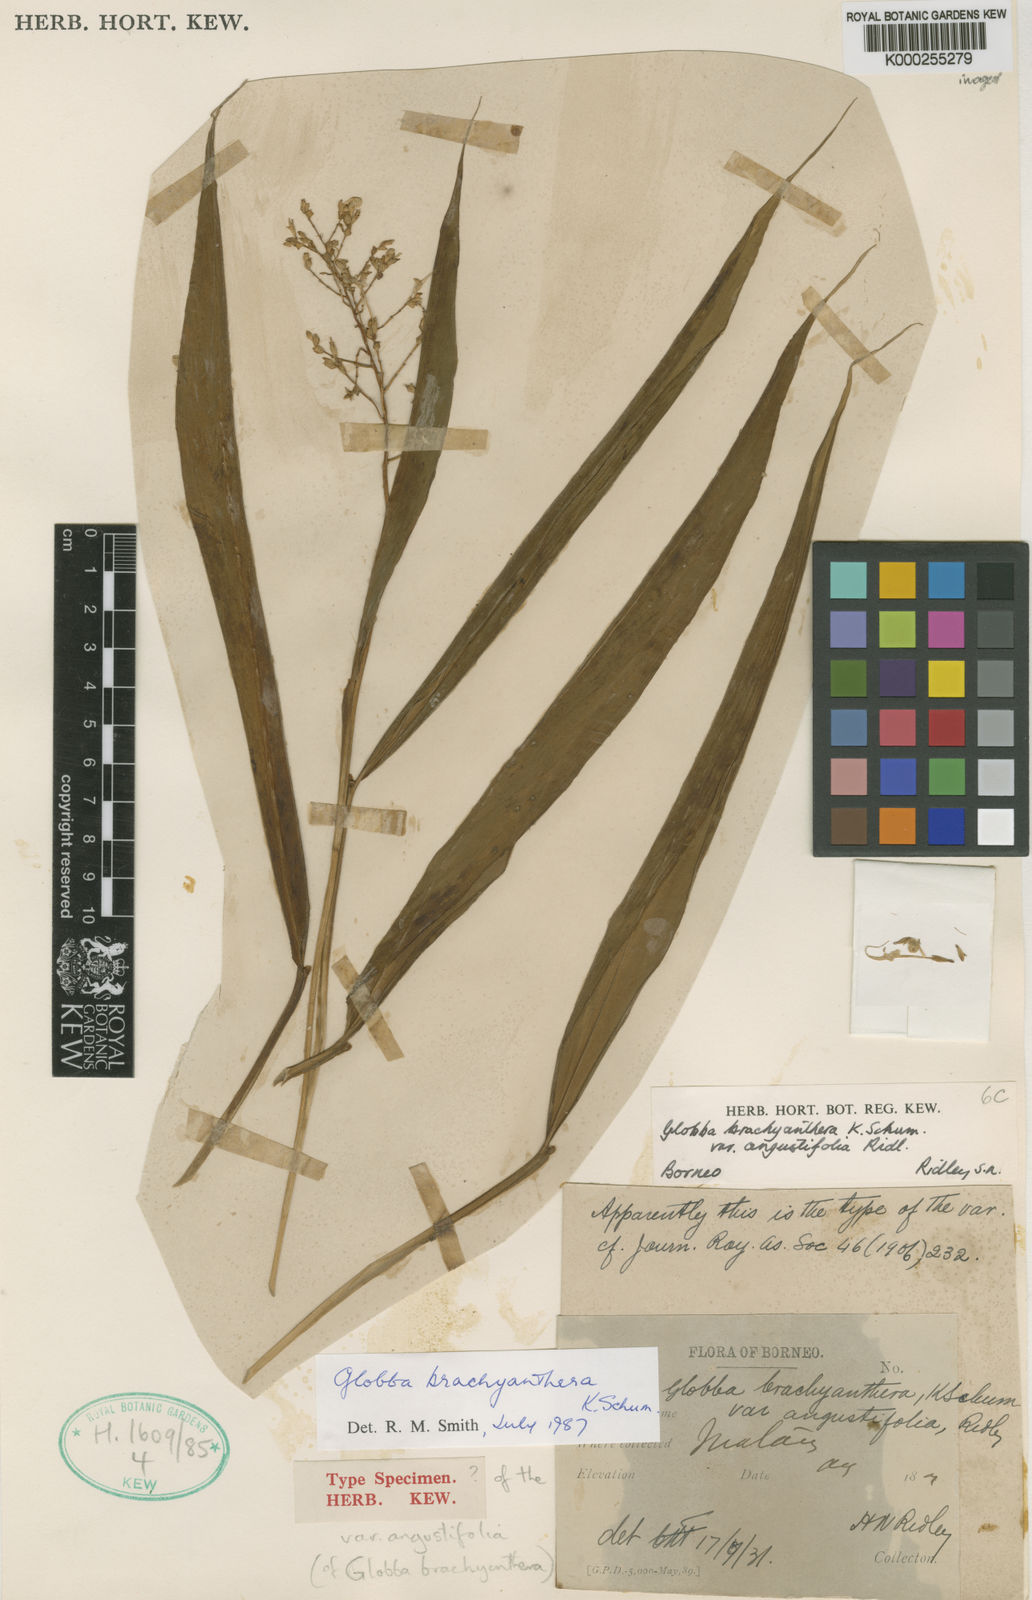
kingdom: Plantae
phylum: Tracheophyta
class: Liliopsida
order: Zingiberales
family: Zingiberaceae
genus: Globba
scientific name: Globba brachyanthera
